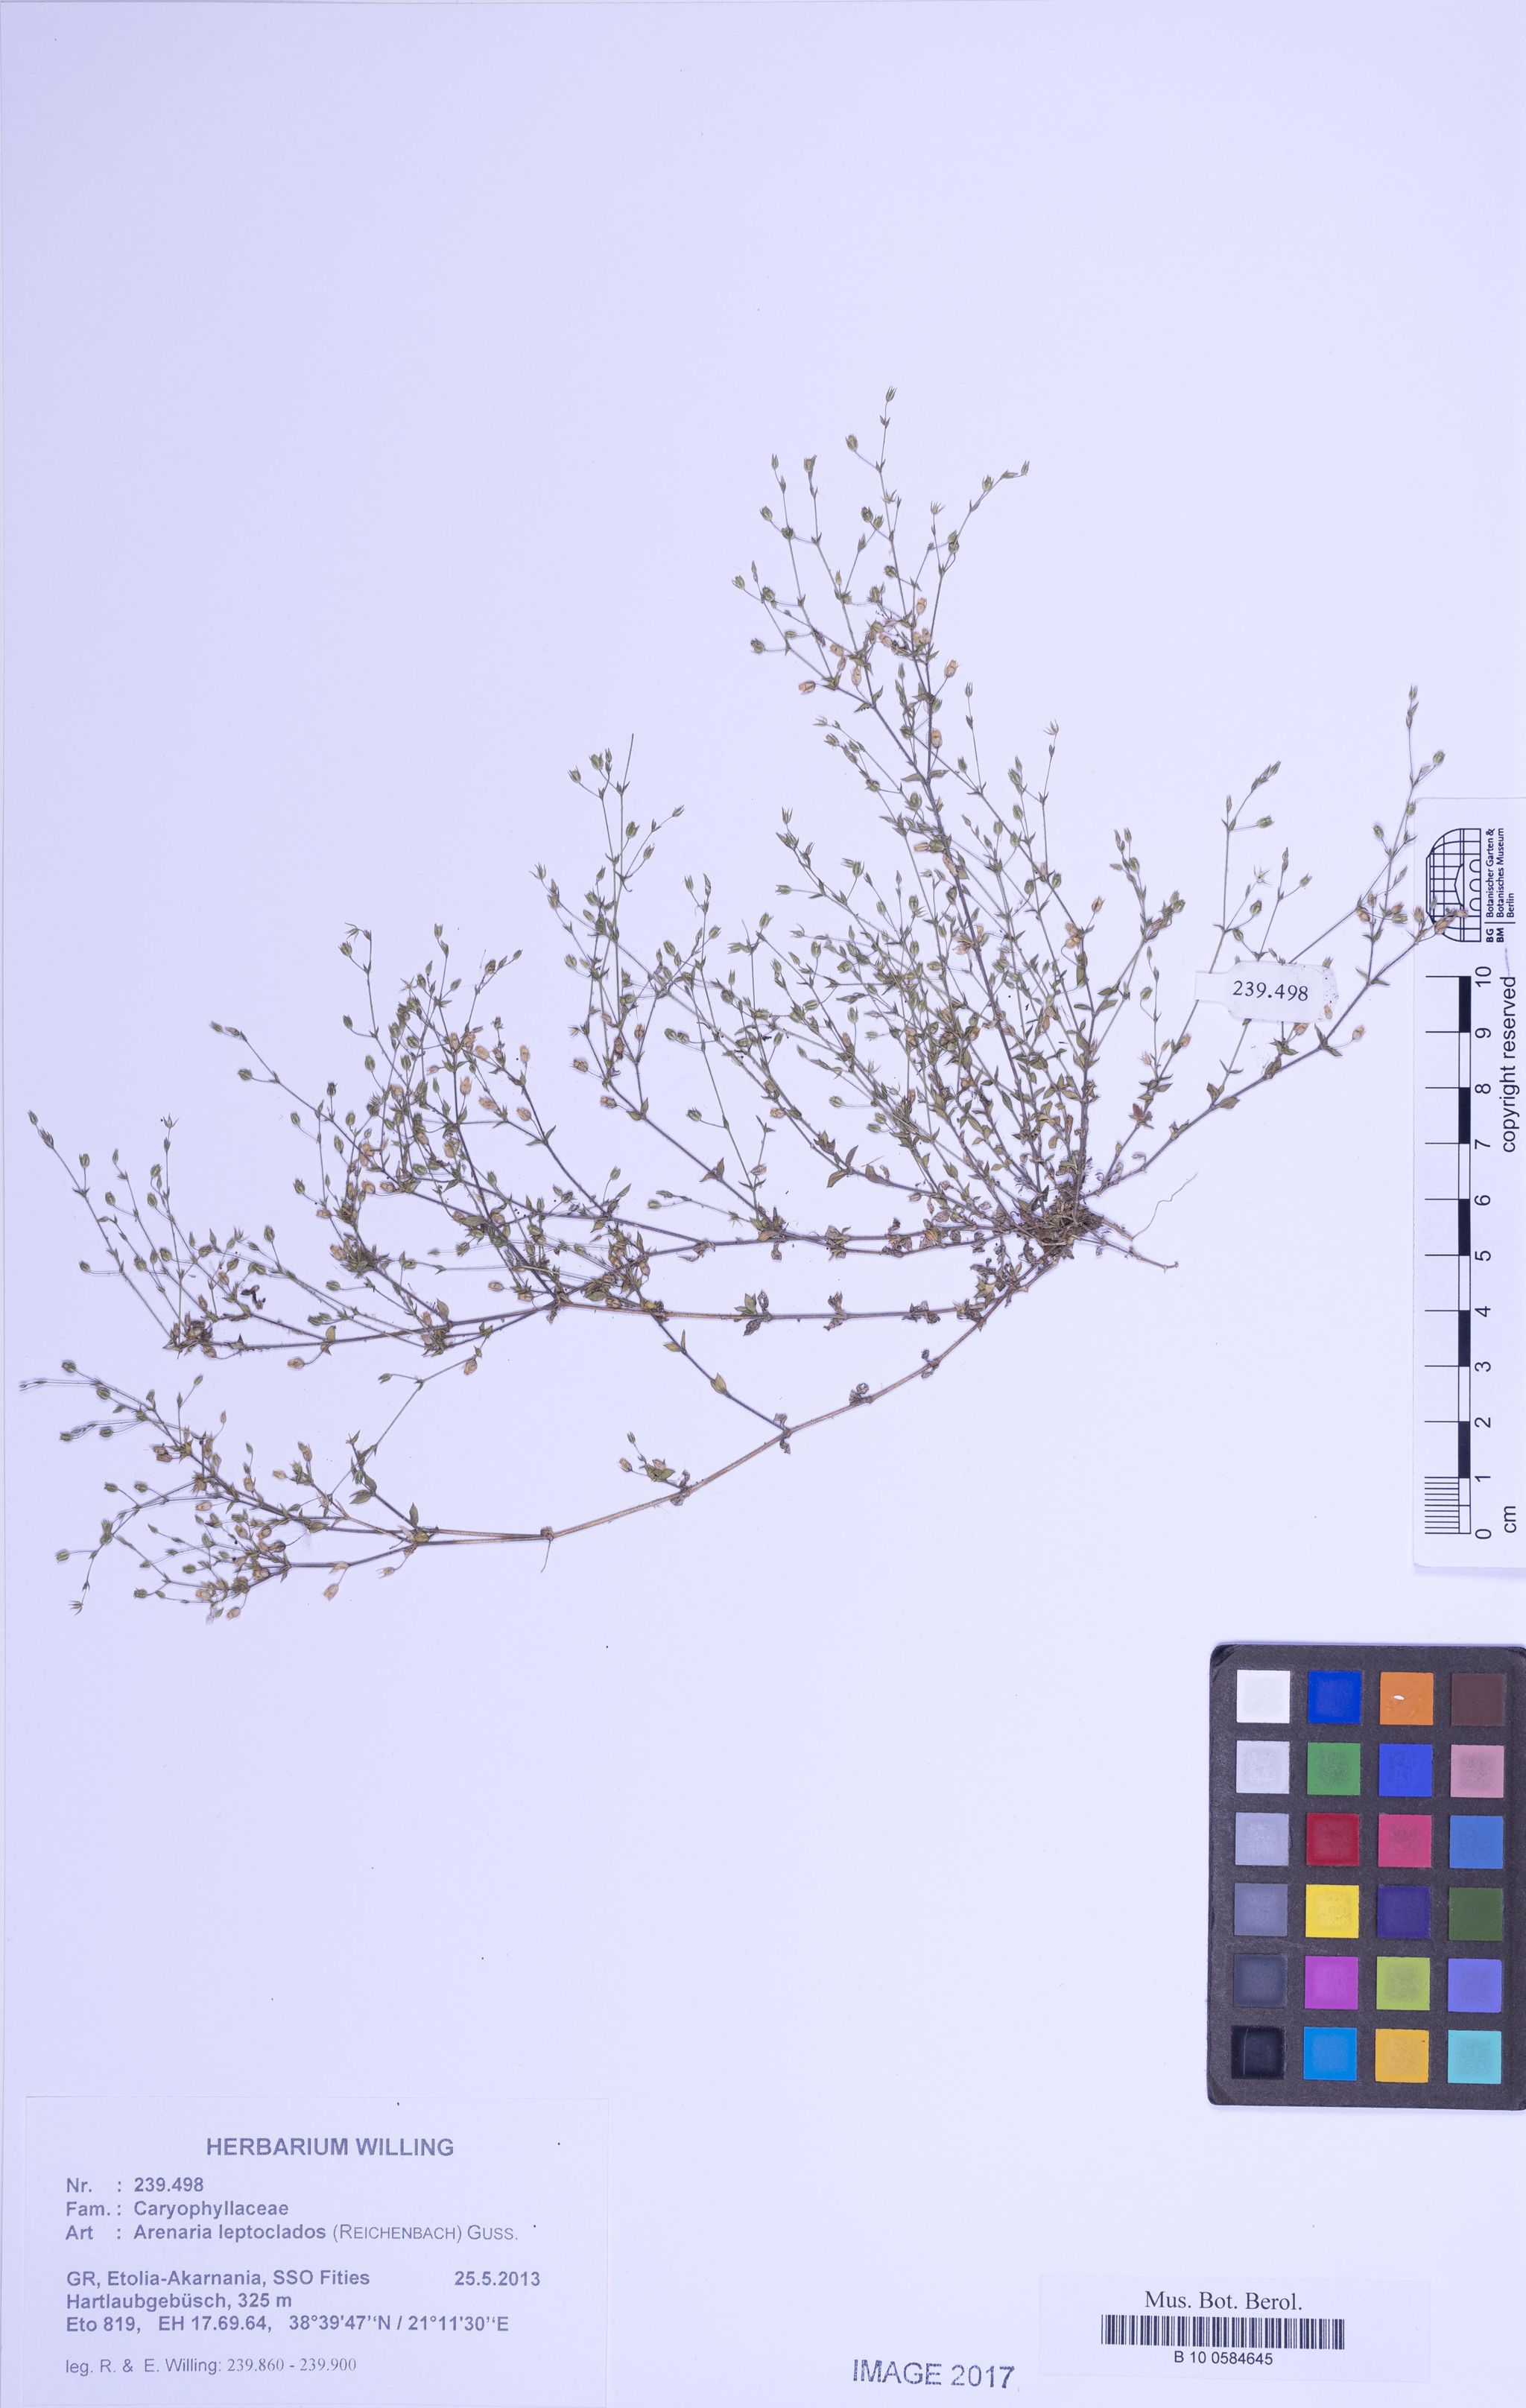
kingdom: Plantae
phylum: Tracheophyta
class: Magnoliopsida
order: Caryophyllales
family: Caryophyllaceae
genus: Arenaria
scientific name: Arenaria leptoclados
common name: Thyme-leaved sandwort
